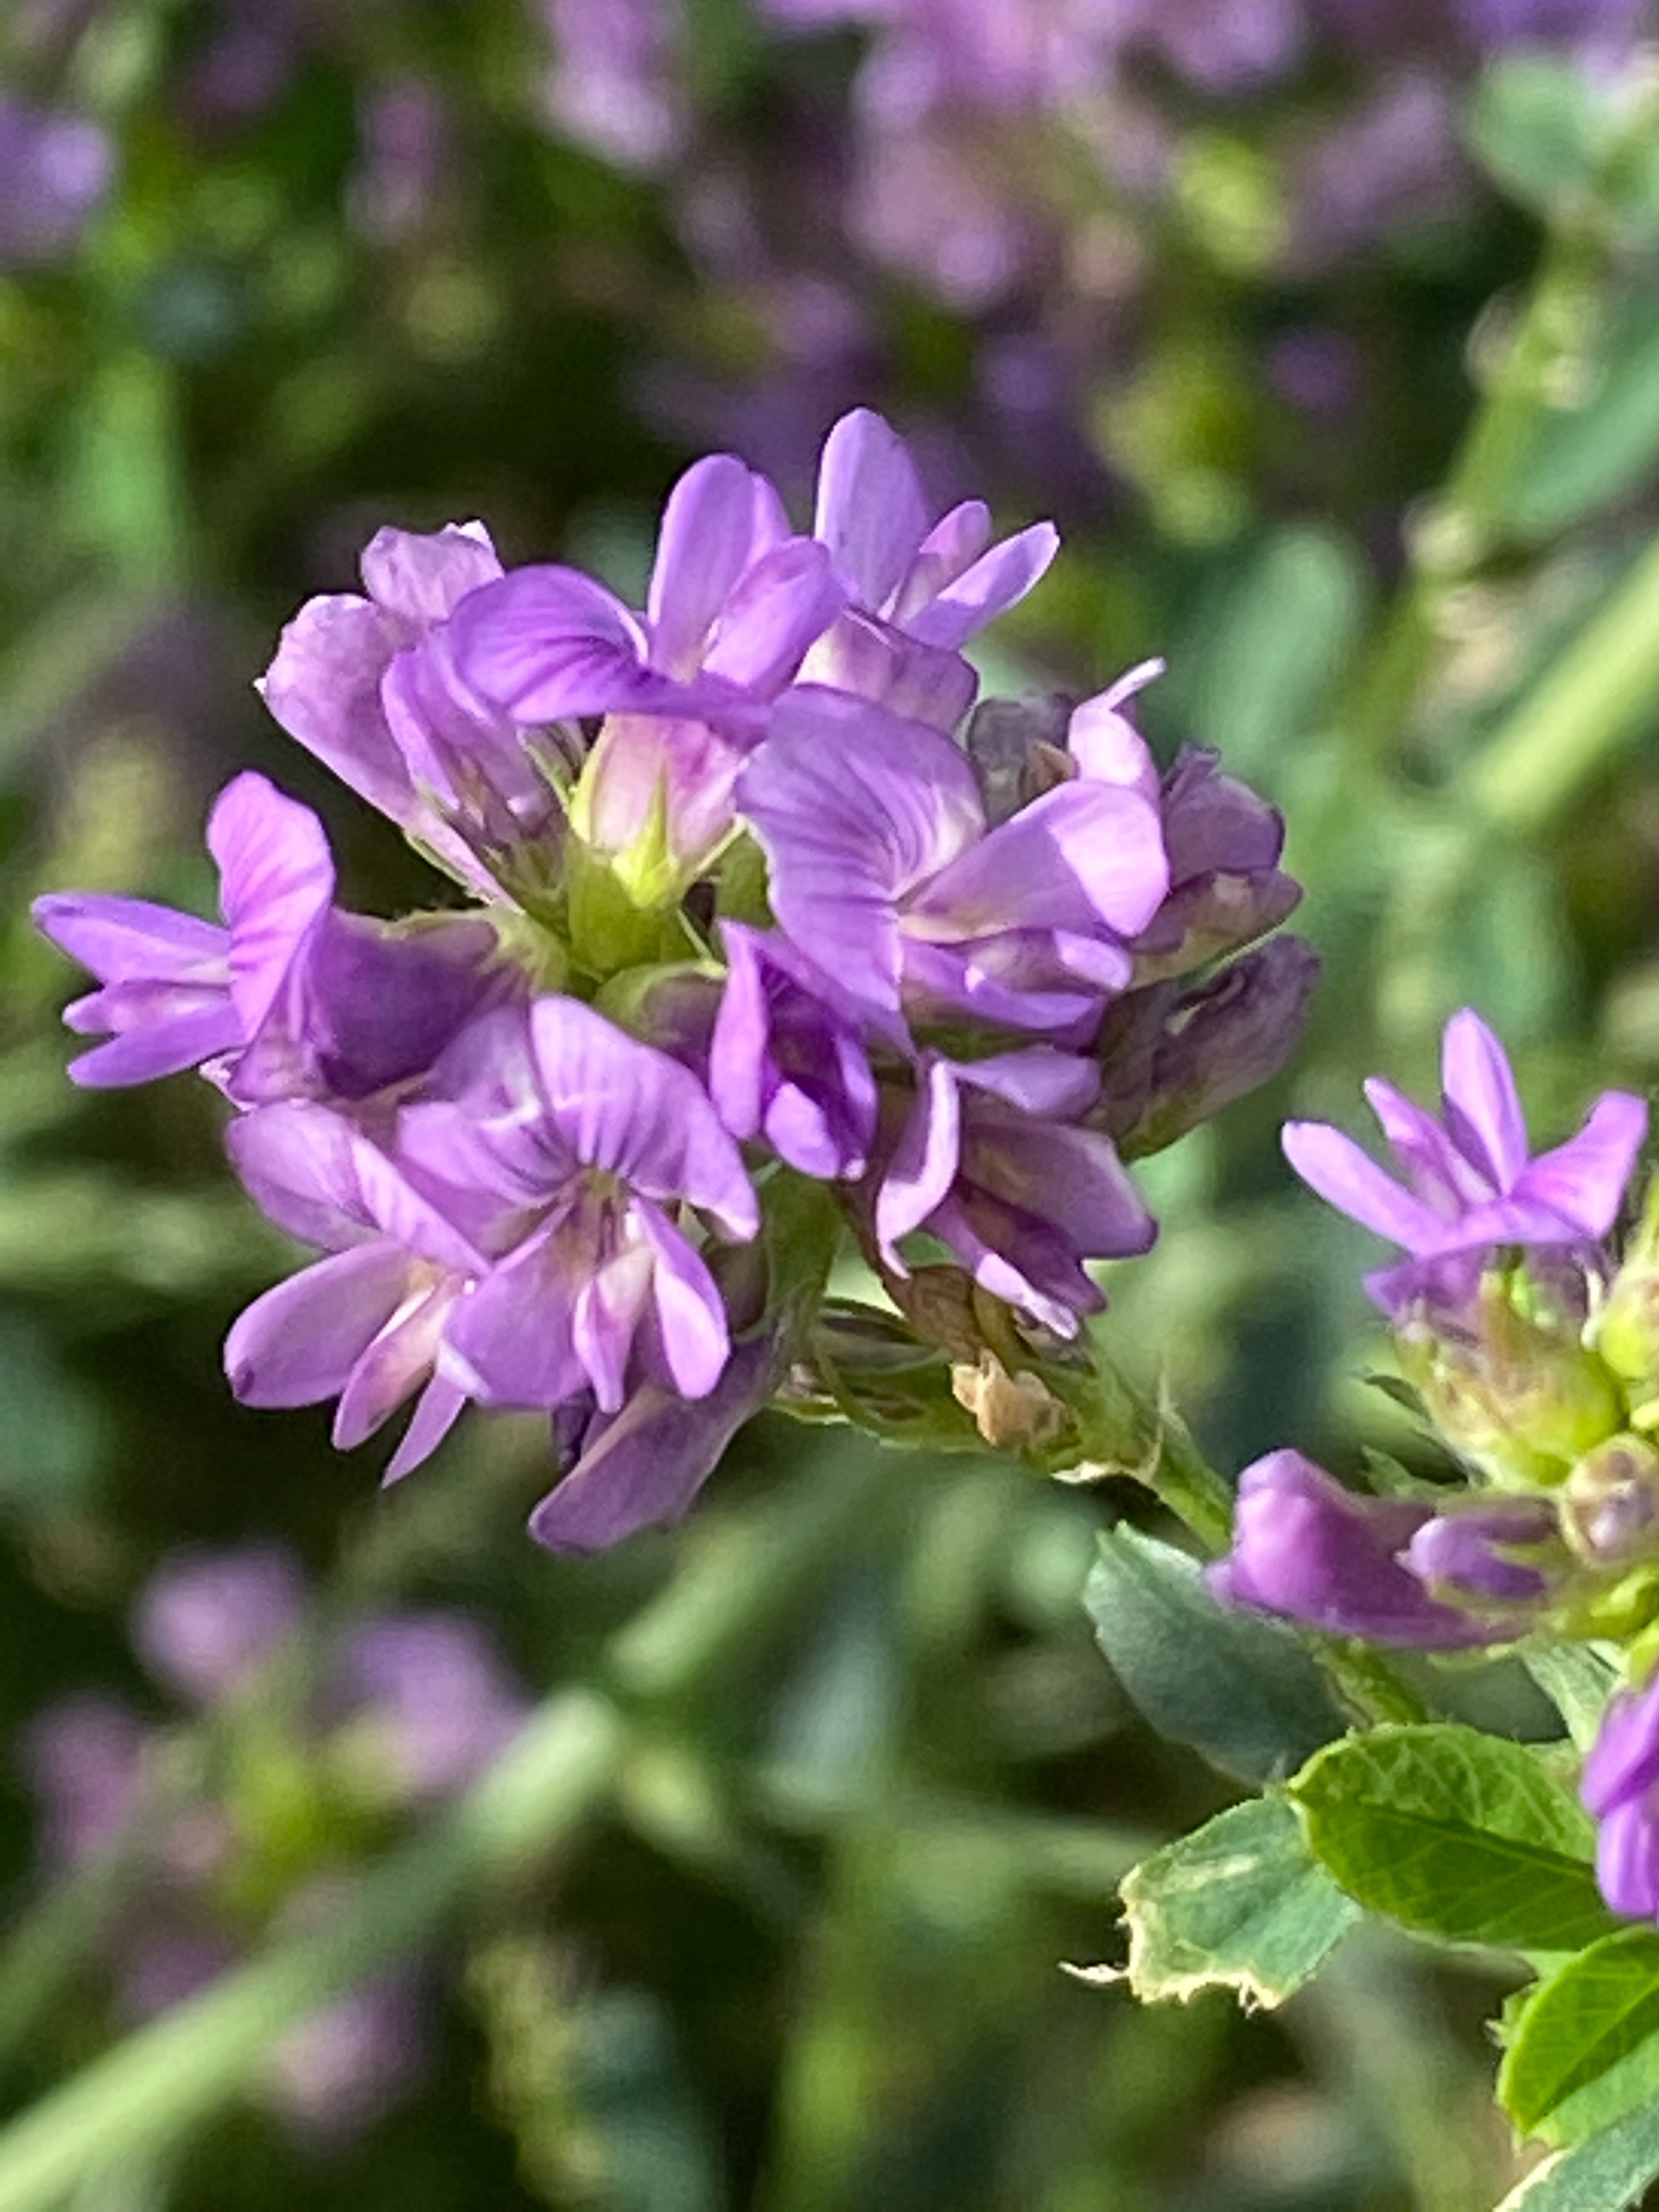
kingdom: Plantae
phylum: Tracheophyta
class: Magnoliopsida
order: Fabales
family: Fabaceae
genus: Medicago
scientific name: Medicago sativa
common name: Lucerne
